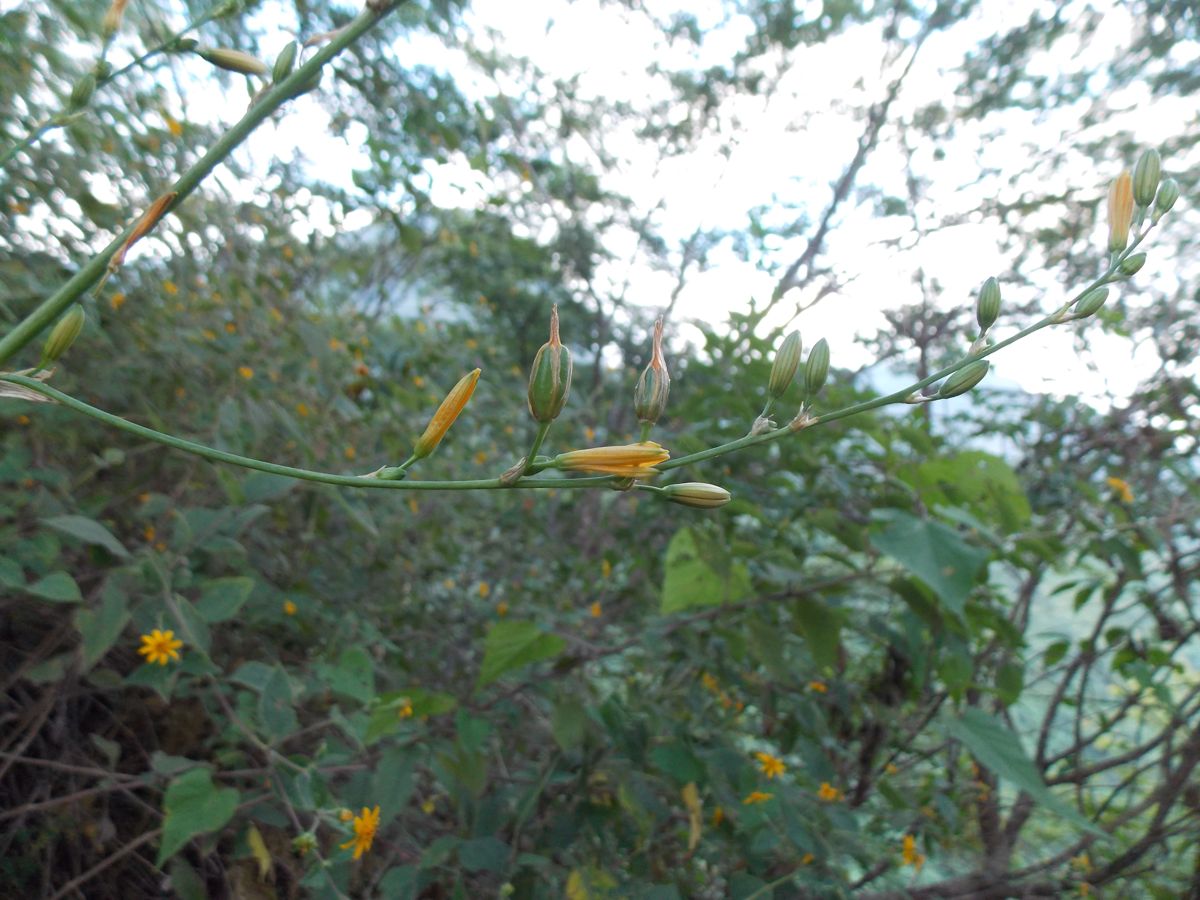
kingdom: Plantae
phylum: Tracheophyta
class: Liliopsida
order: Asparagales
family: Asparagaceae
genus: Echeandia
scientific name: Echeandia skinneri
